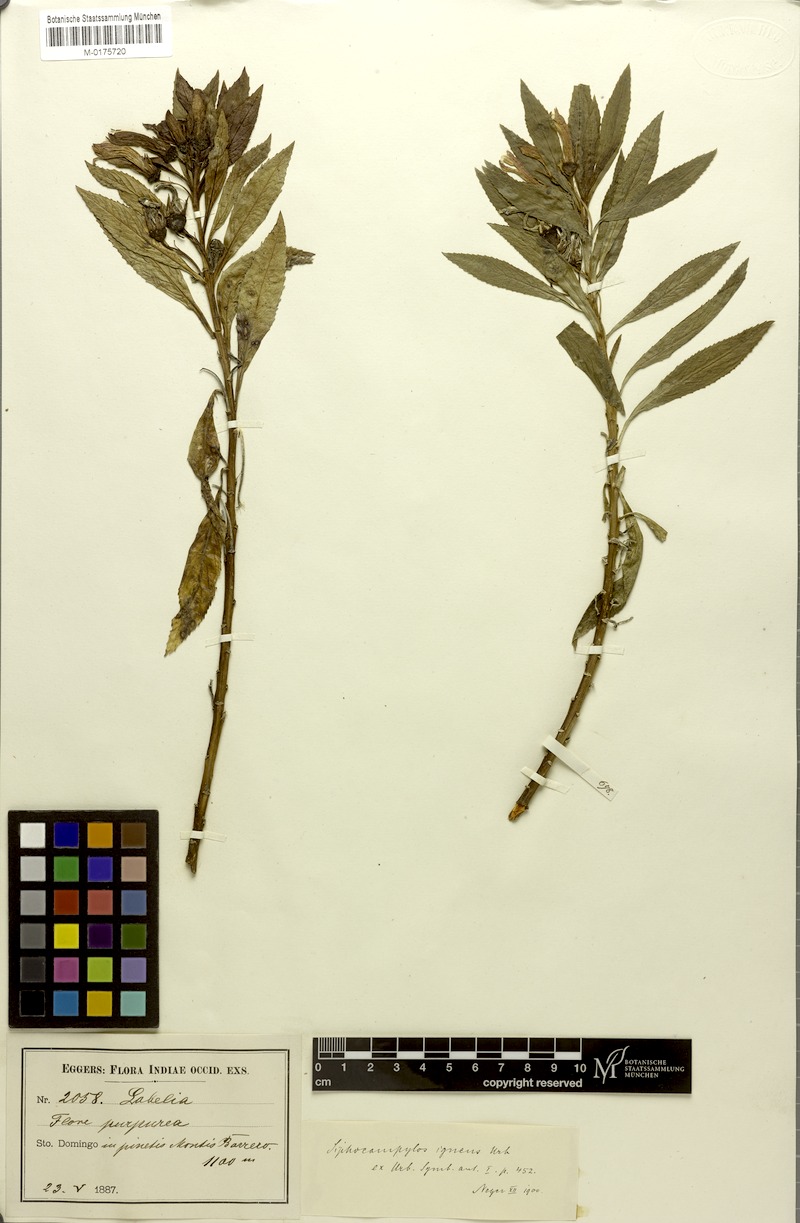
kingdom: Plantae
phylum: Tracheophyta
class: Magnoliopsida
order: Asterales
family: Campanulaceae
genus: Siphocampylus
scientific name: Siphocampylus igneus
